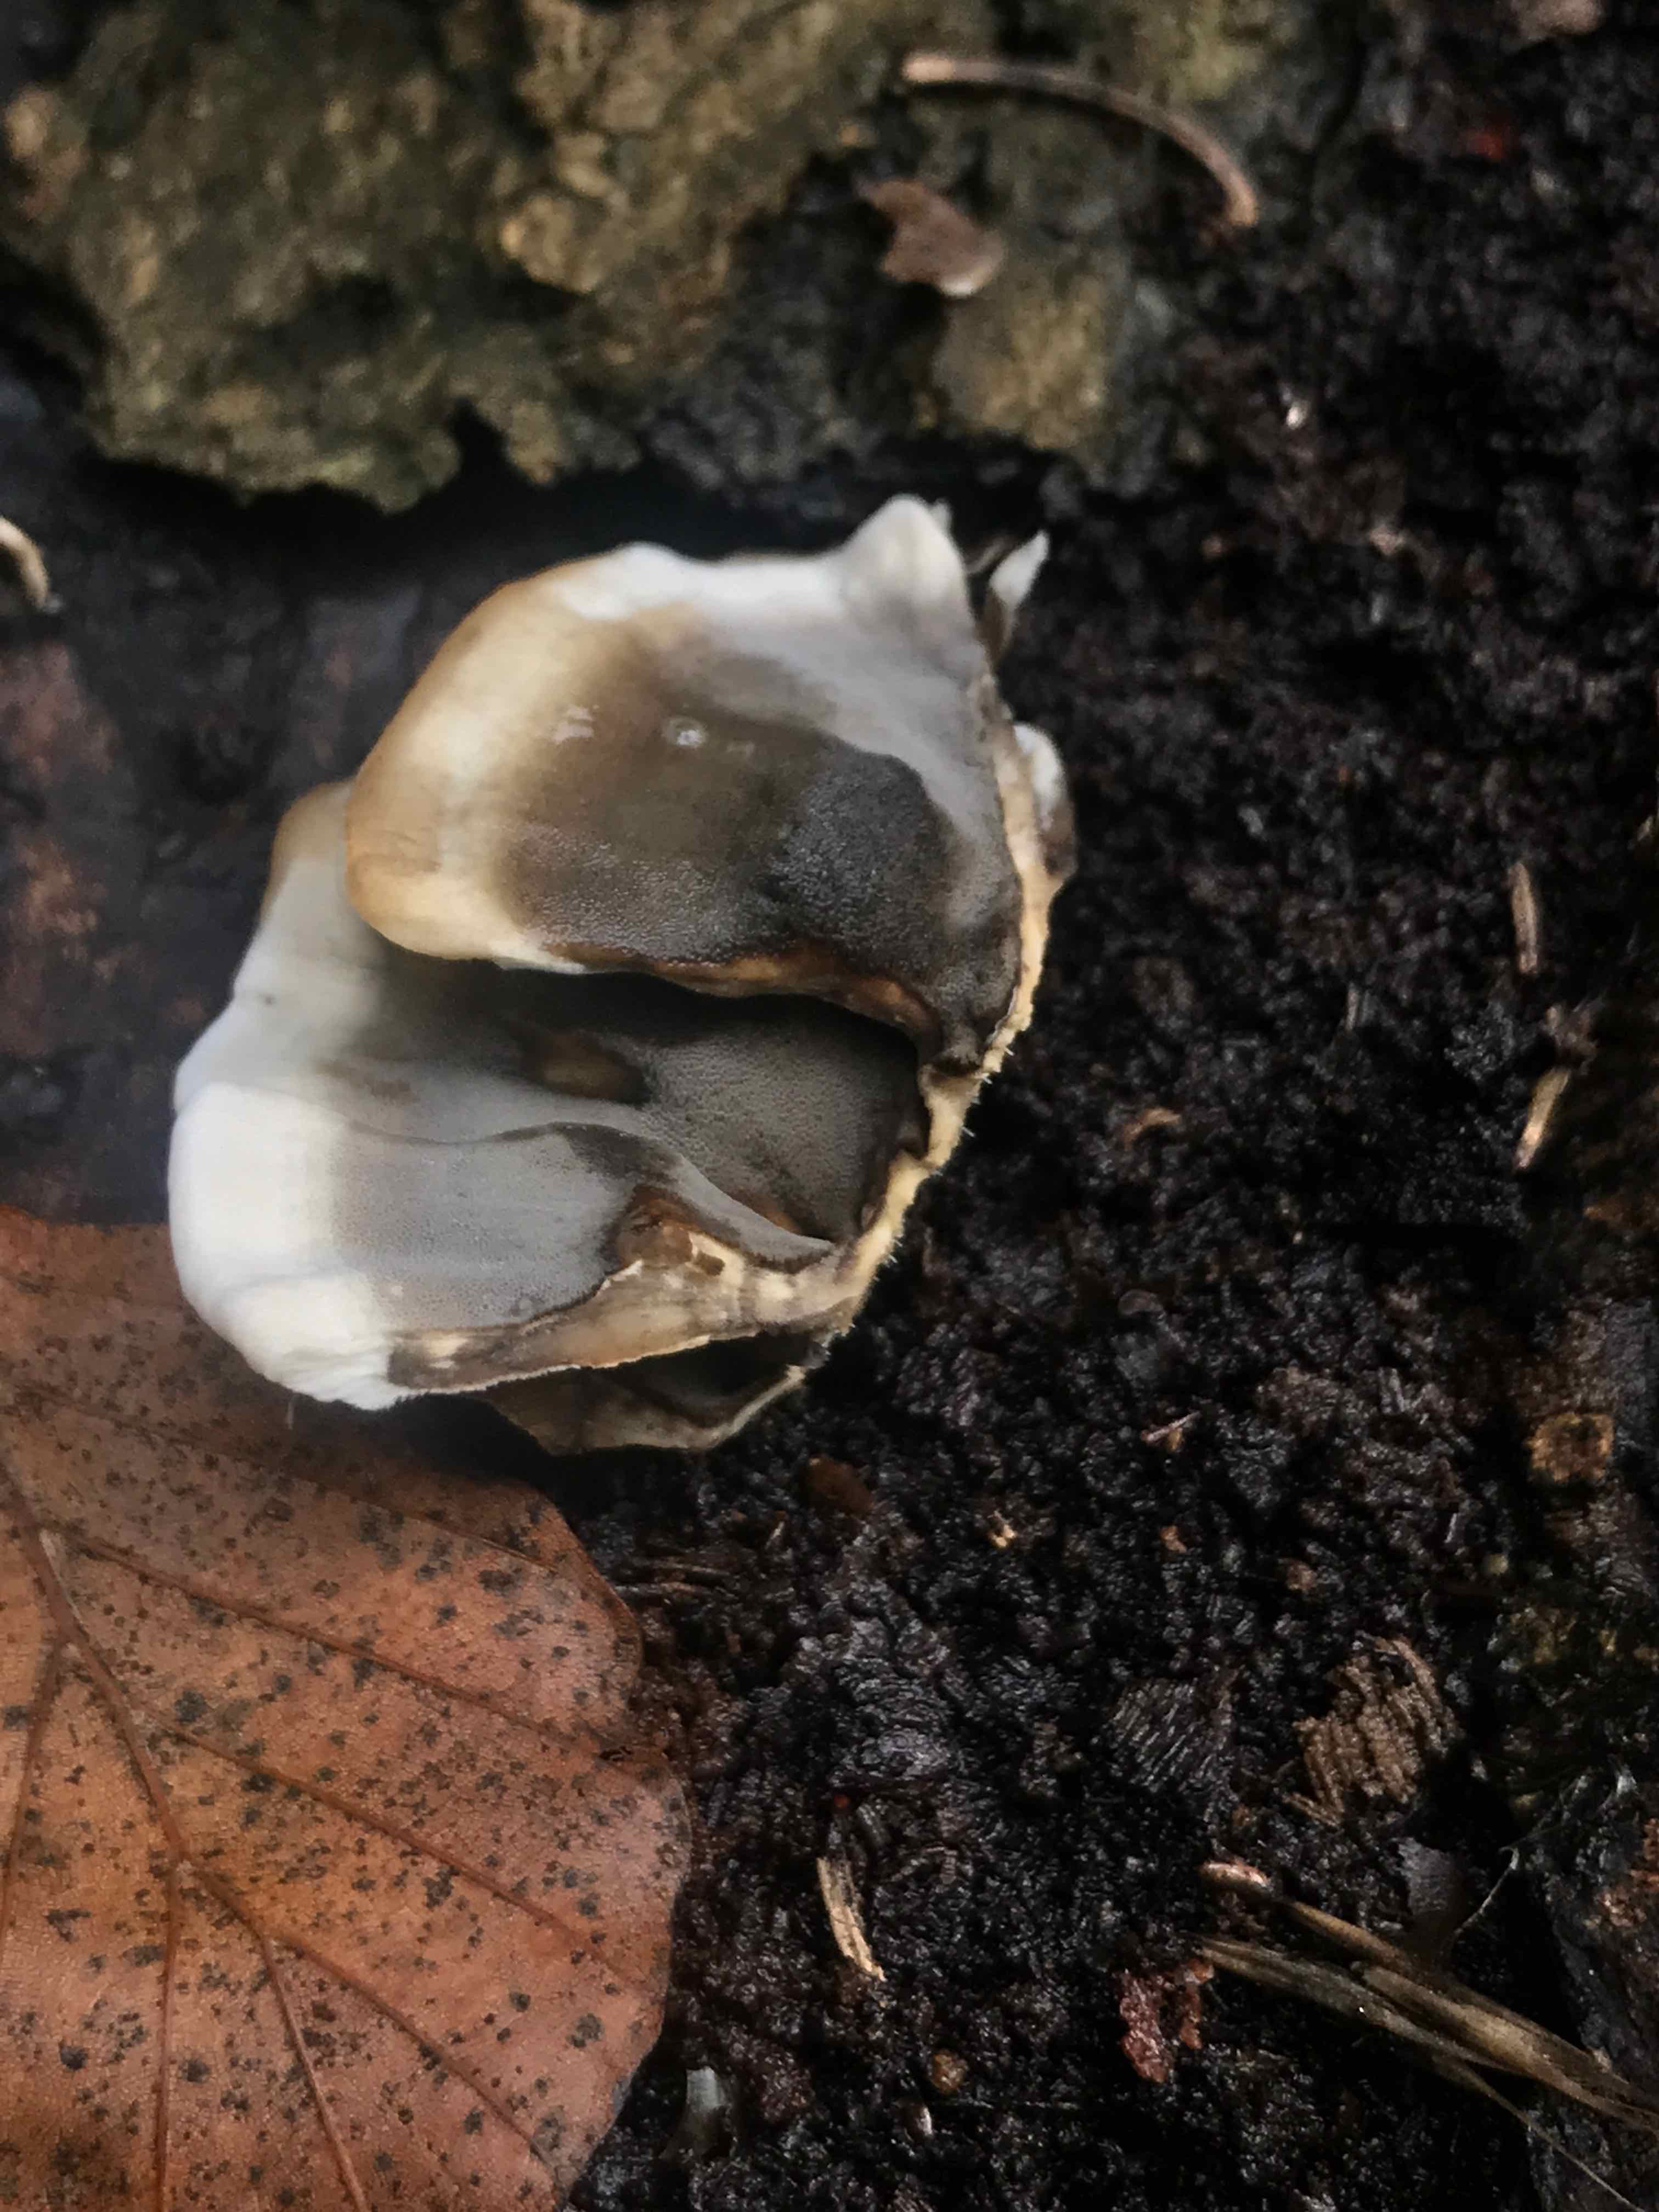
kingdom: Fungi
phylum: Basidiomycota
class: Agaricomycetes
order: Polyporales
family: Phanerochaetaceae
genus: Bjerkandera
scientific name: Bjerkandera adusta
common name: sveden sodporesvamp
